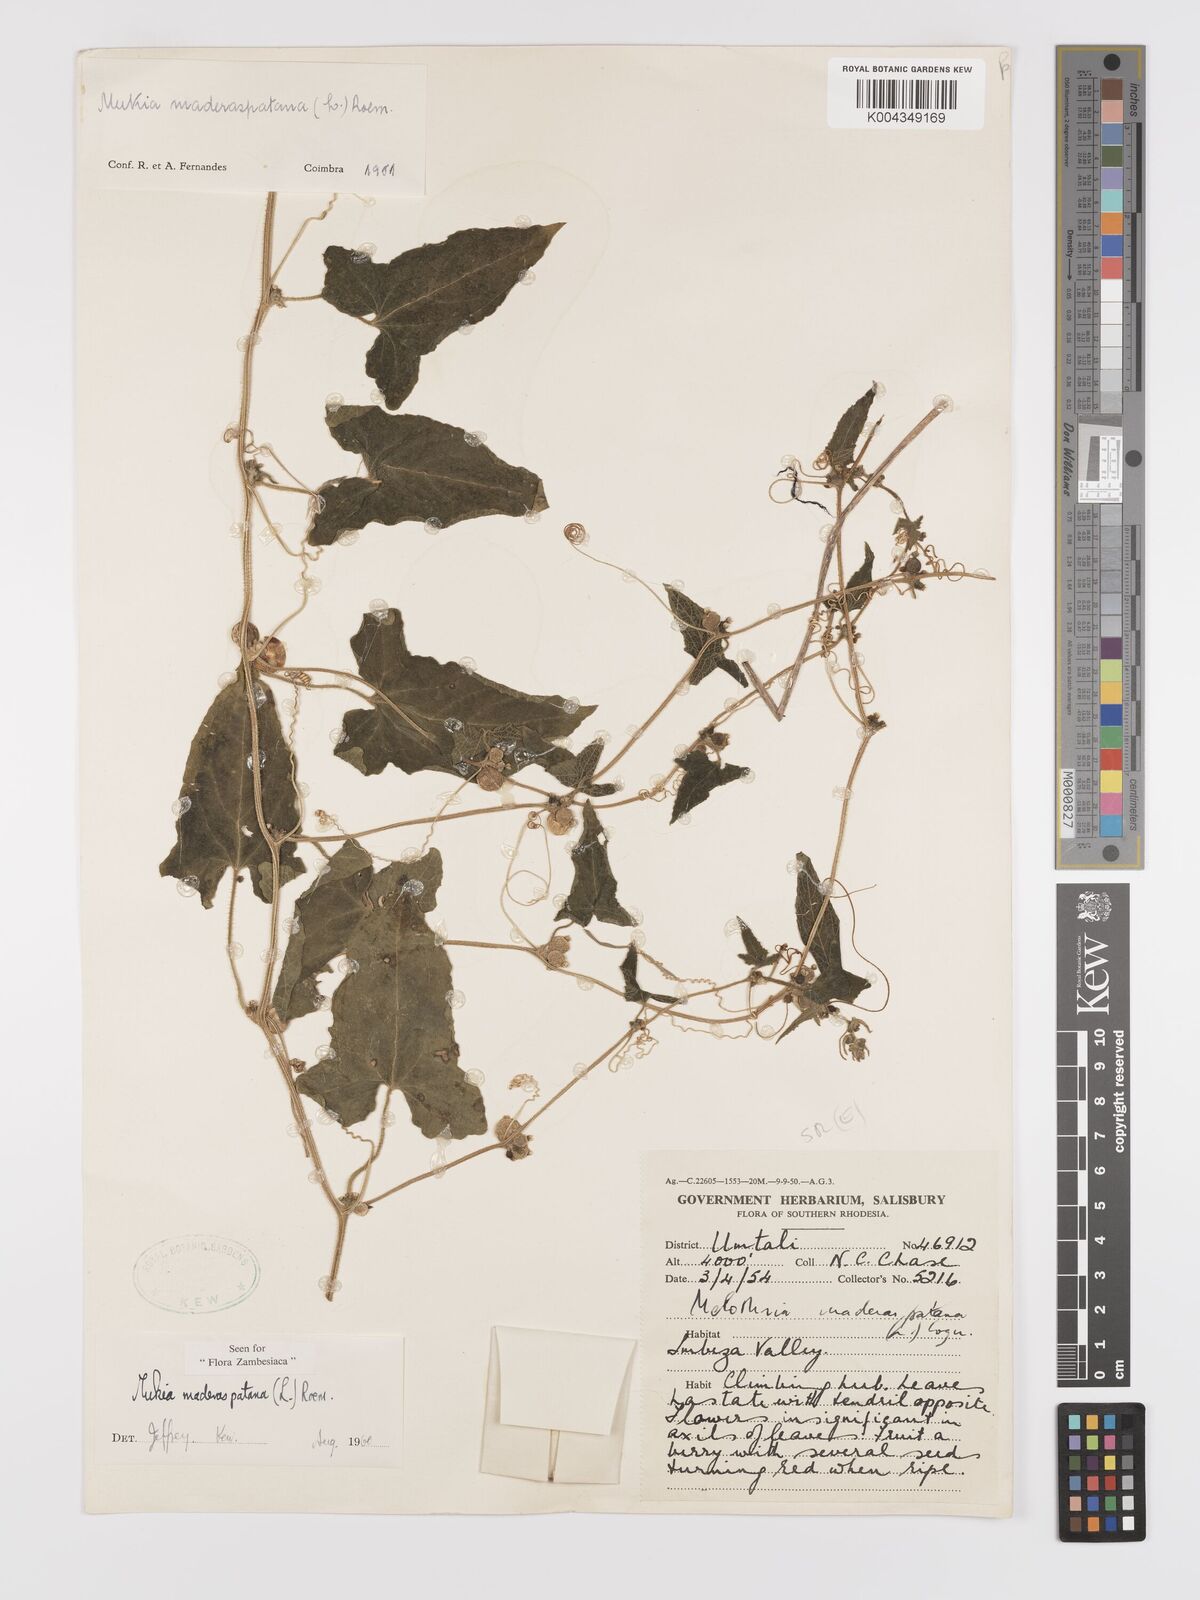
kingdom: Plantae
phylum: Tracheophyta
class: Magnoliopsida
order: Cucurbitales
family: Cucurbitaceae
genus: Cucumis
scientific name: Cucumis maderaspatanus
